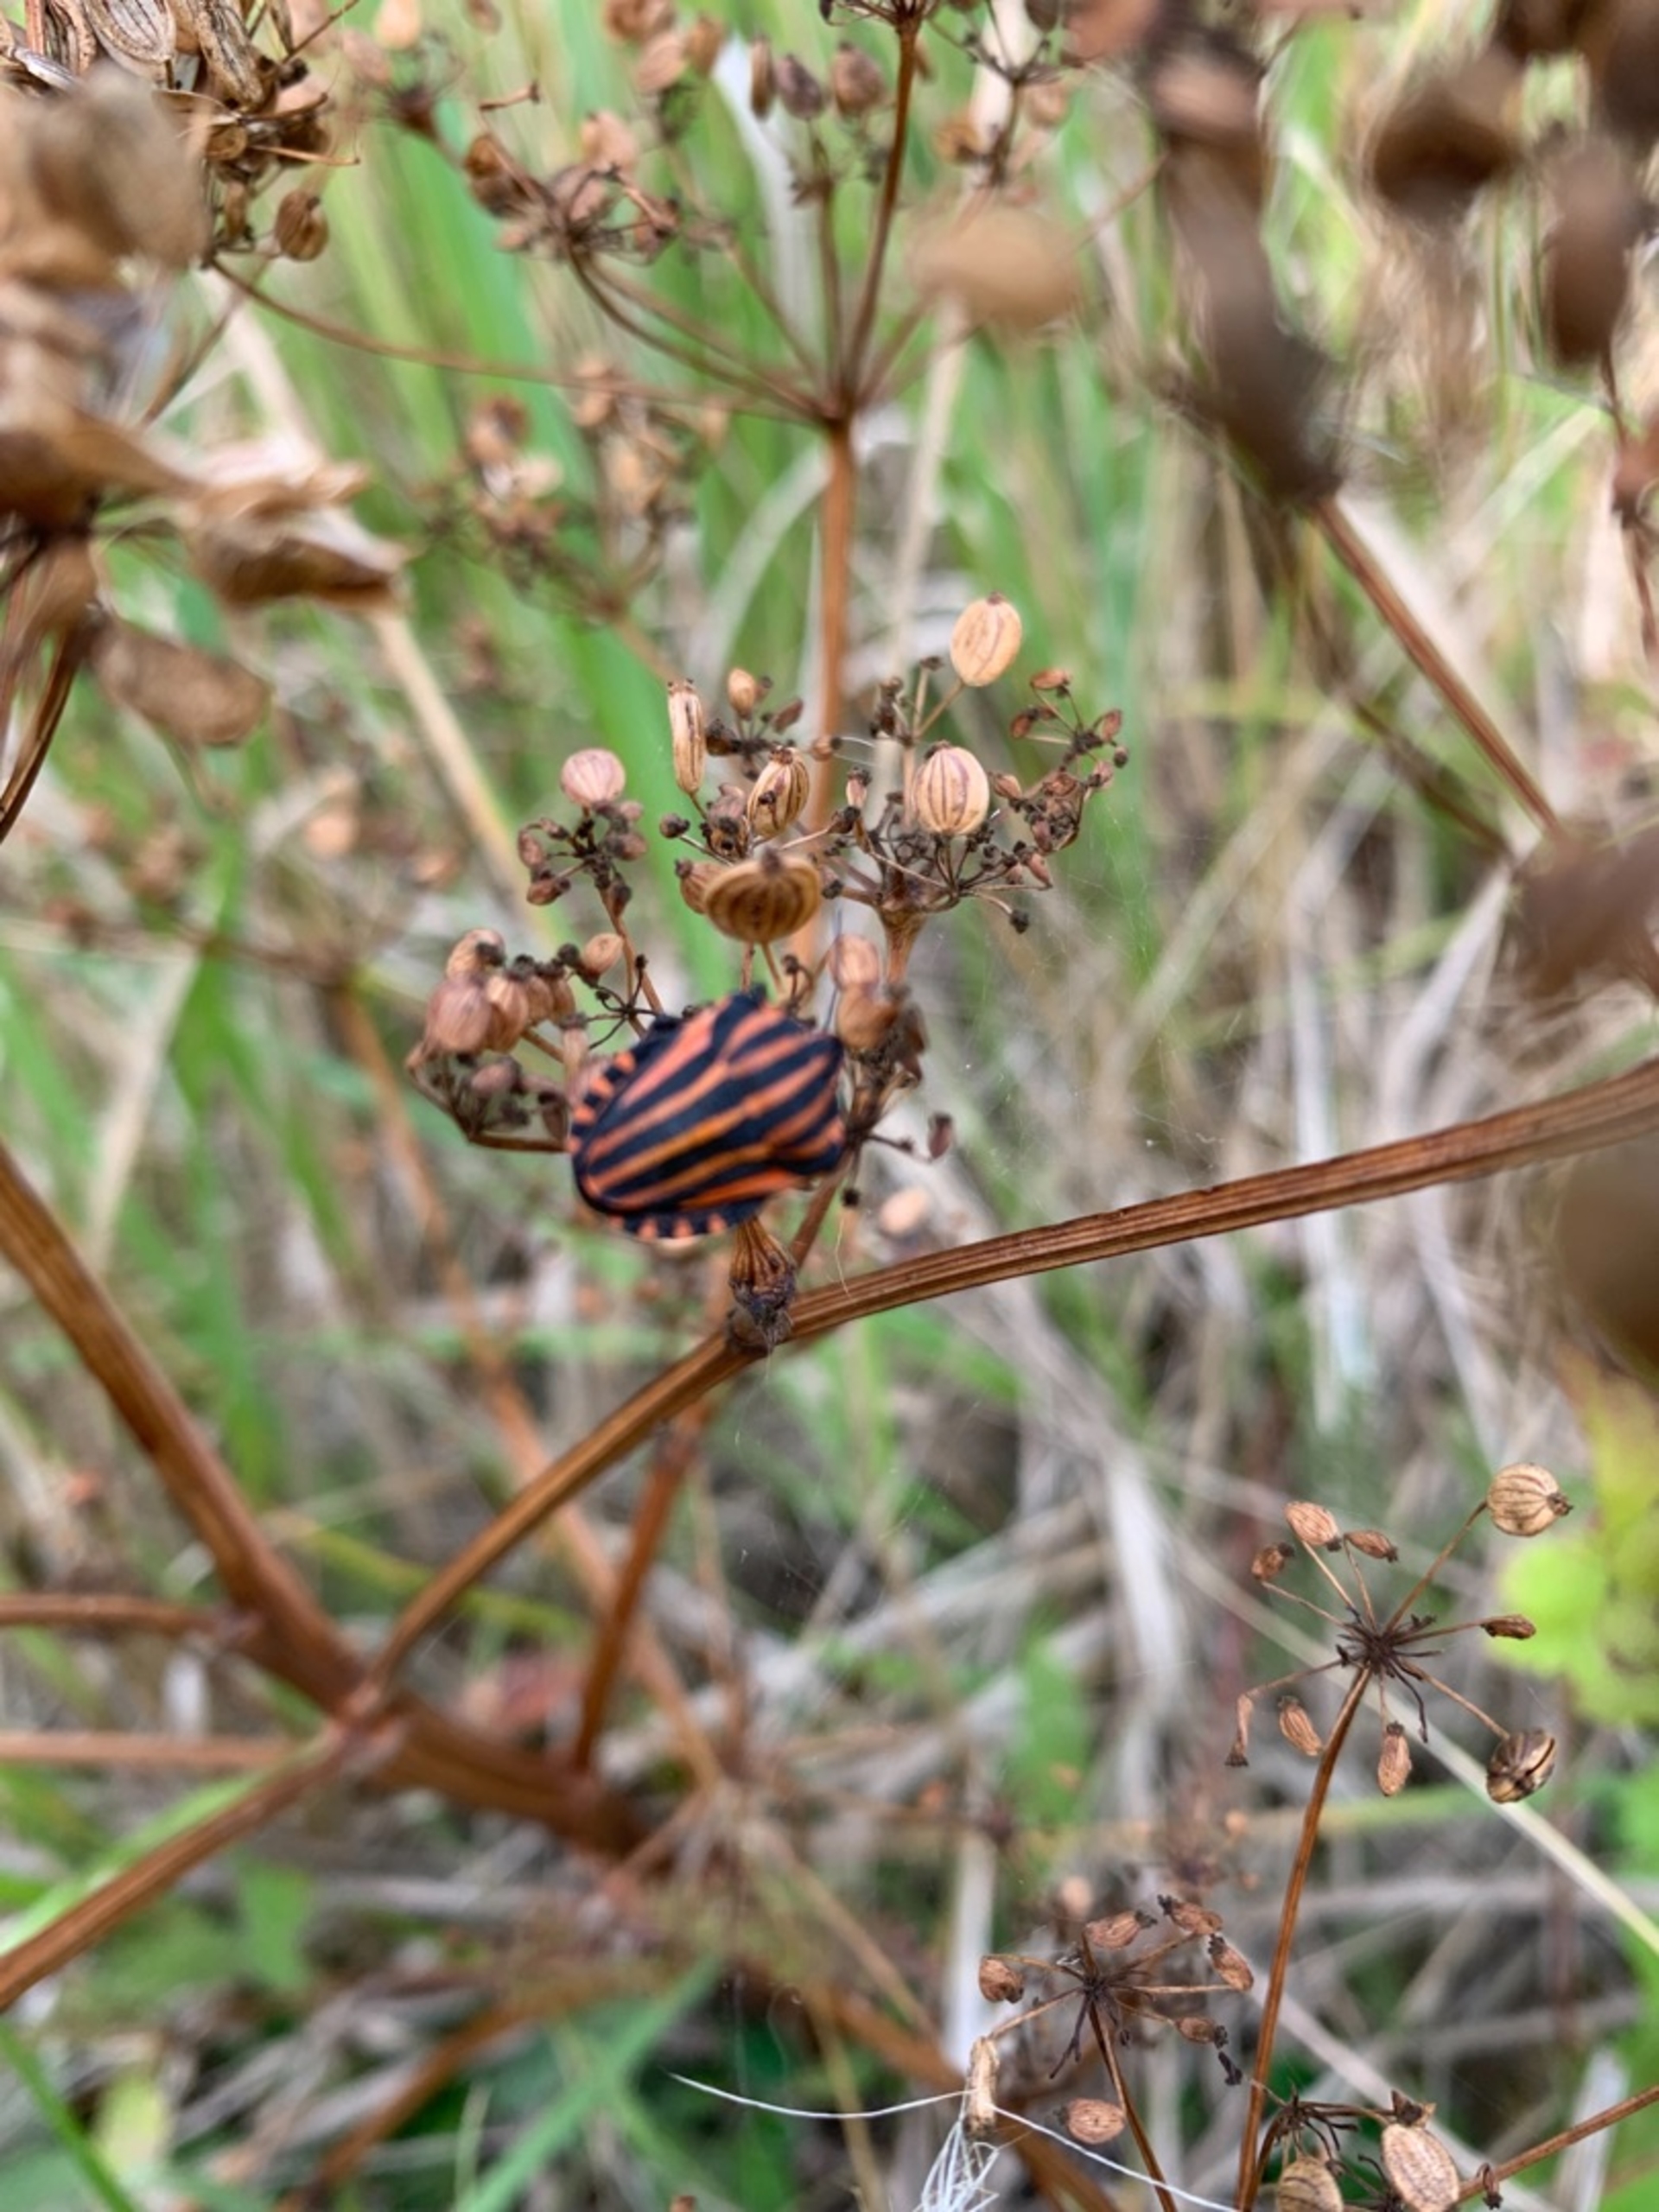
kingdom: Animalia
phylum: Arthropoda
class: Insecta
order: Hemiptera
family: Pentatomidae
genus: Graphosoma
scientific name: Graphosoma italicum
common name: Stribetæge
